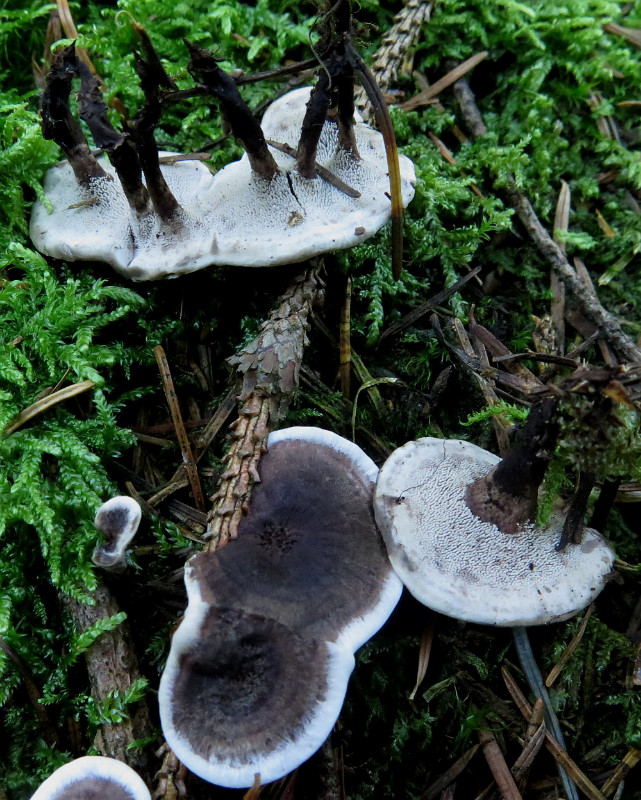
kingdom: Fungi
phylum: Basidiomycota
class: Agaricomycetes
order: Thelephorales
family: Thelephoraceae
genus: Phellodon
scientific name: Phellodon tomentosus
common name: vellugtende duftpigsvamp
